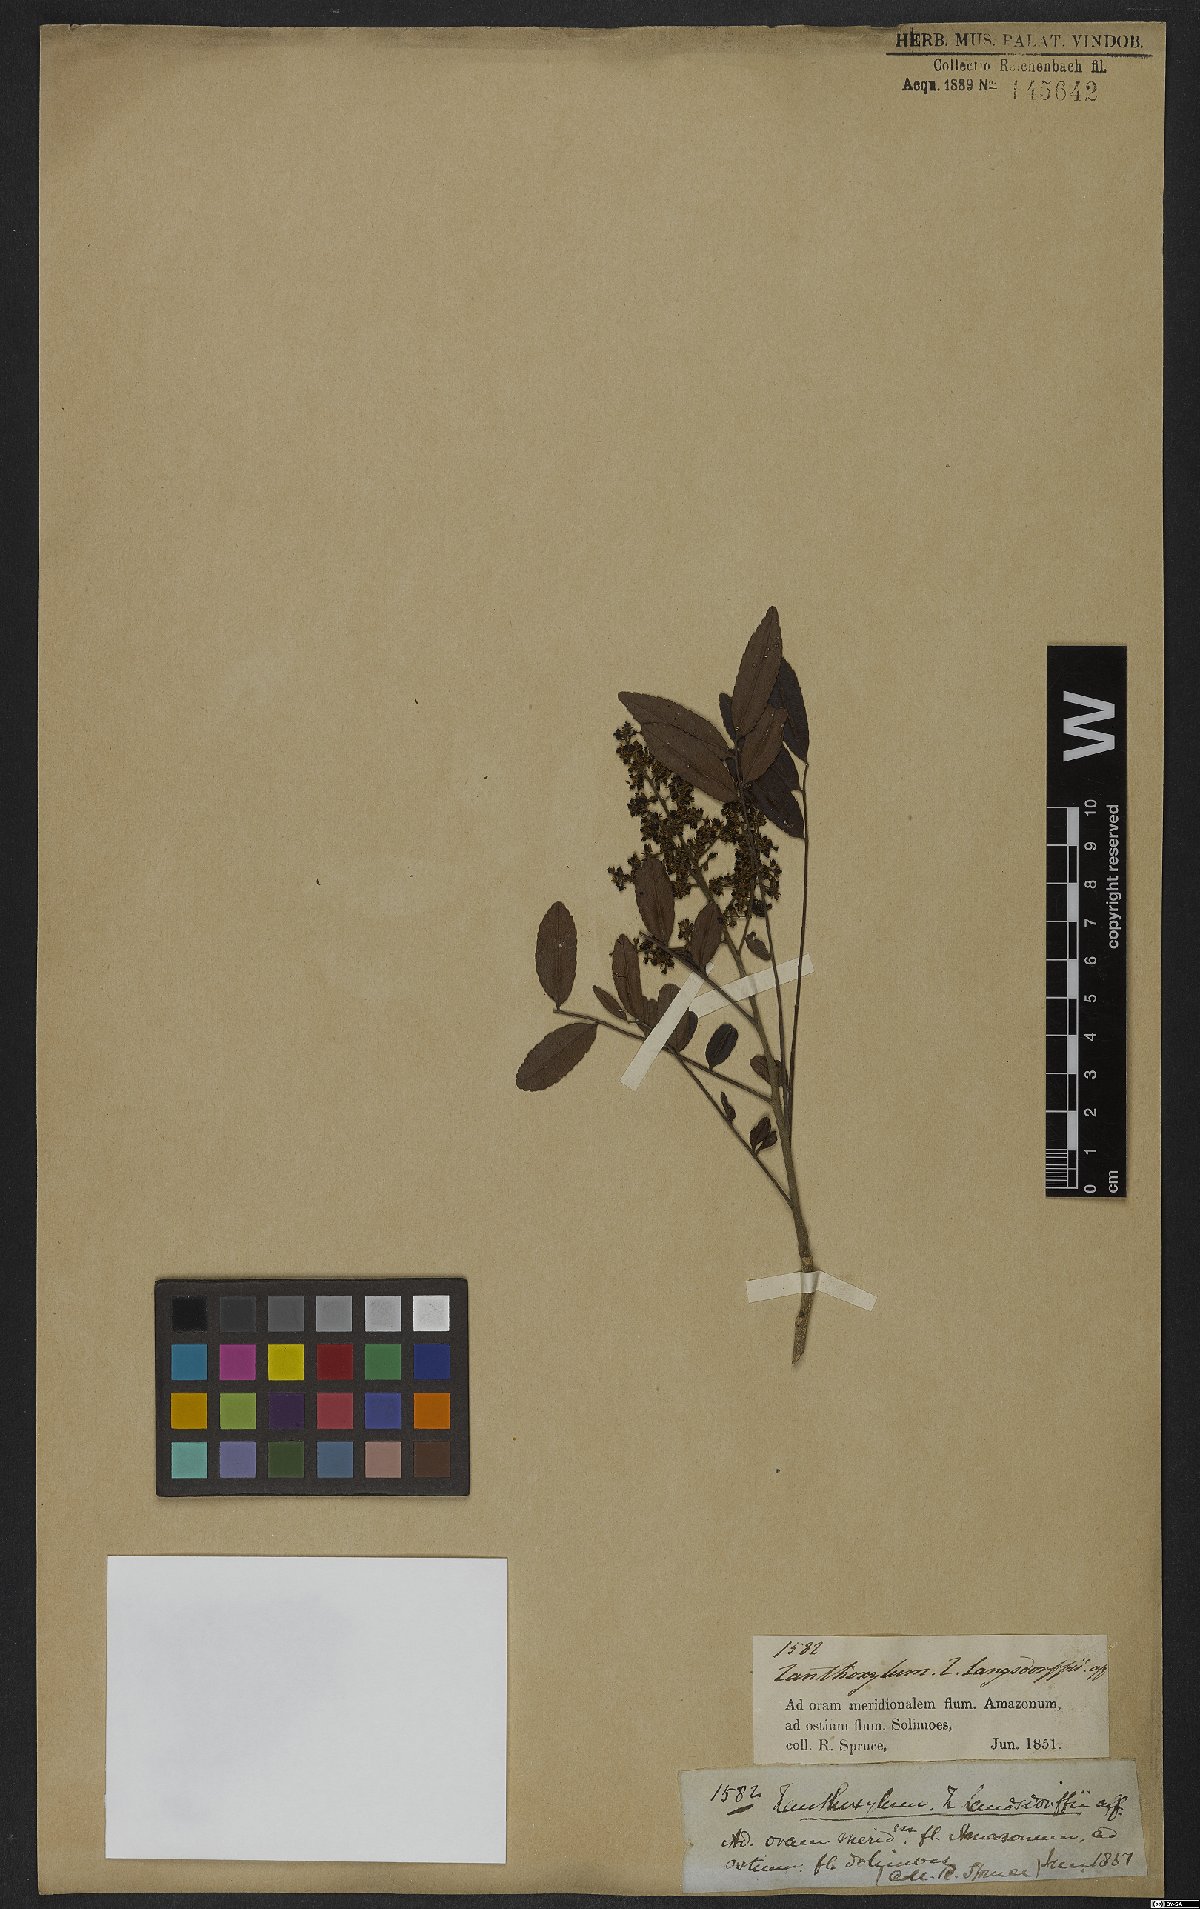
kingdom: Plantae
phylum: Tracheophyta
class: Magnoliopsida
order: Sapindales
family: Rutaceae
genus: Zanthoxylum
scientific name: Zanthoxylum rhoifolium
